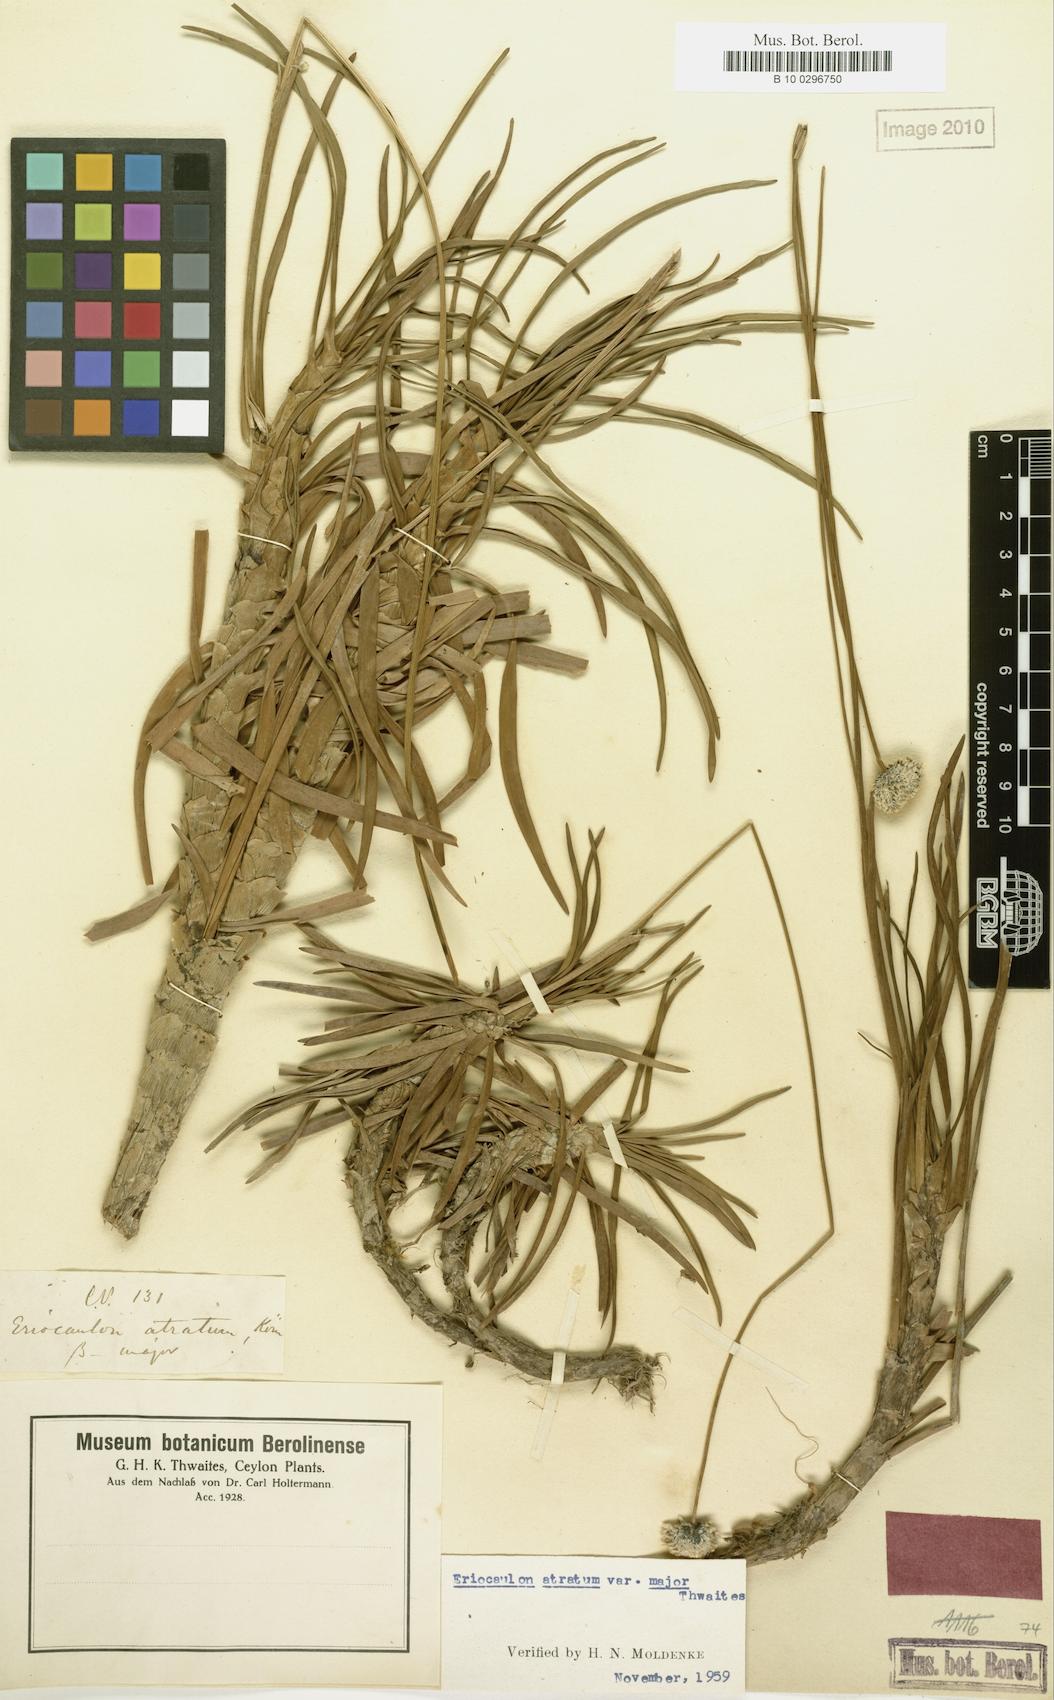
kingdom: Plantae
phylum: Tracheophyta
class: Liliopsida
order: Poales
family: Eriocaulaceae
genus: Eriocaulon
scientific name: Eriocaulon philippo-coburgii
